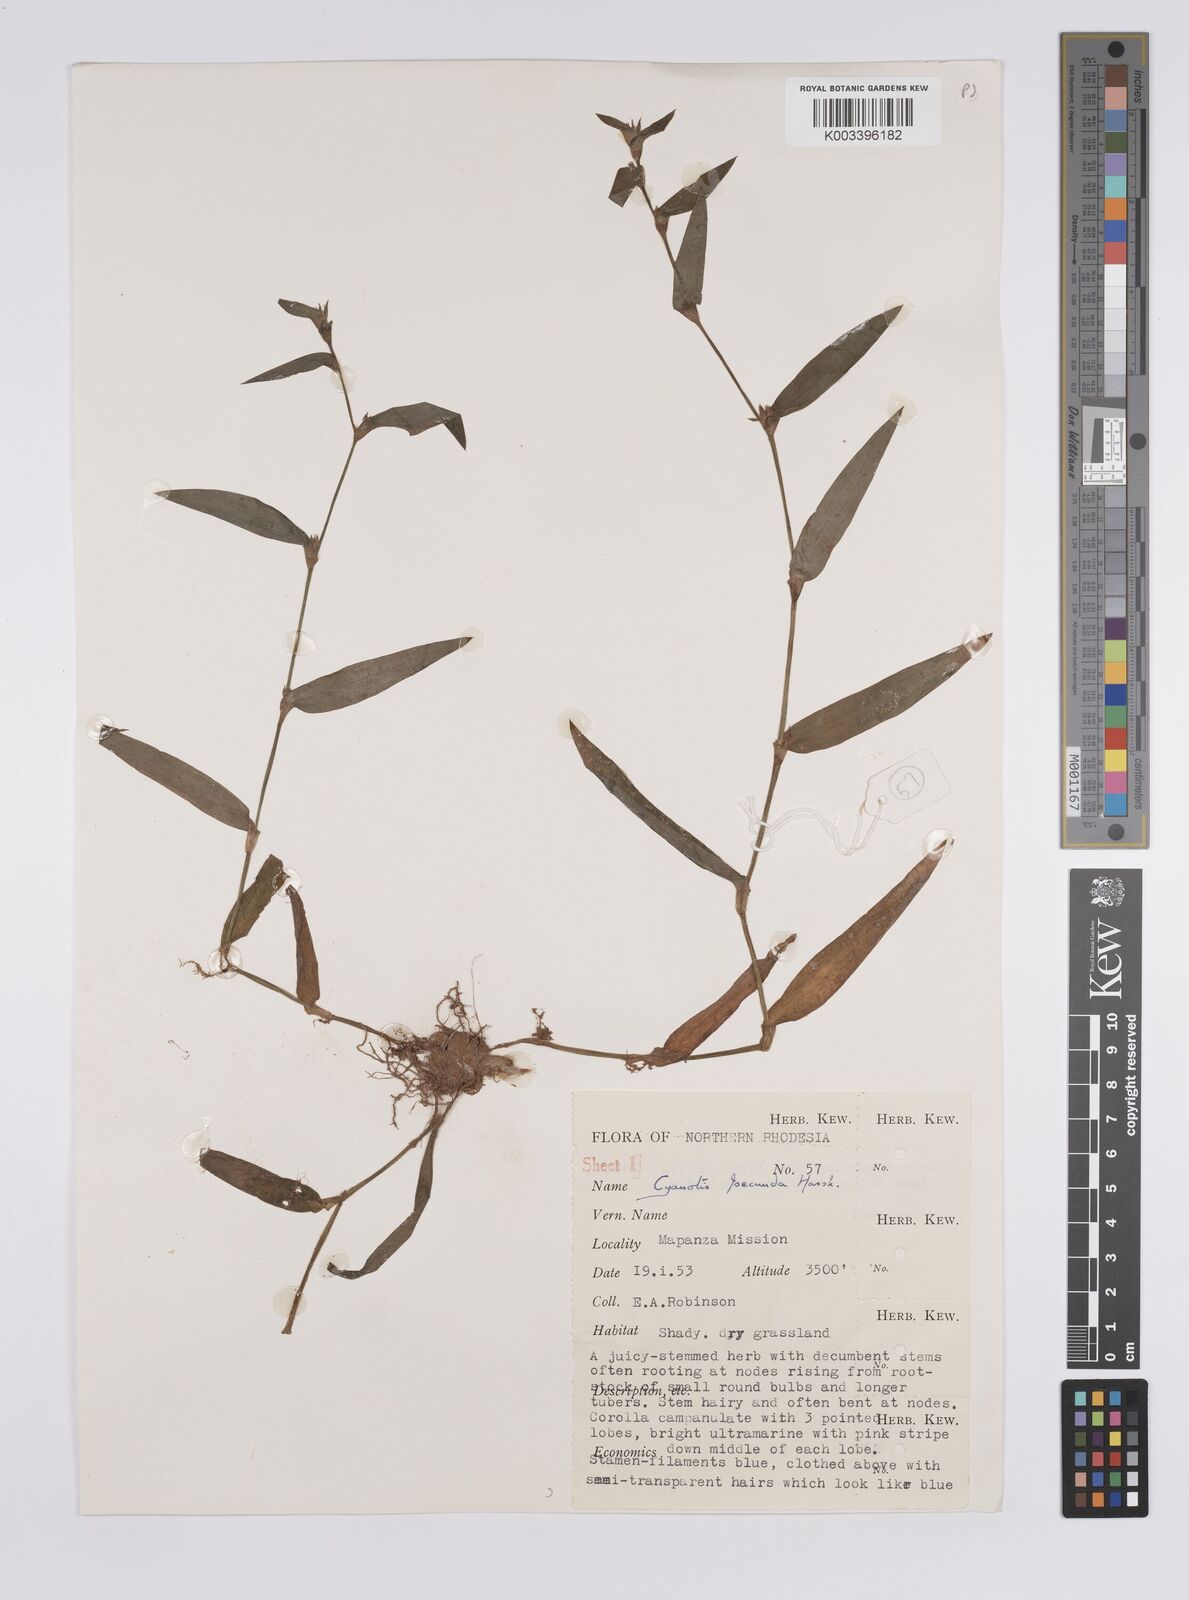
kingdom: Plantae
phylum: Tracheophyta
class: Liliopsida
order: Commelinales
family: Commelinaceae
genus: Cyanotis
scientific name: Cyanotis foecunda
